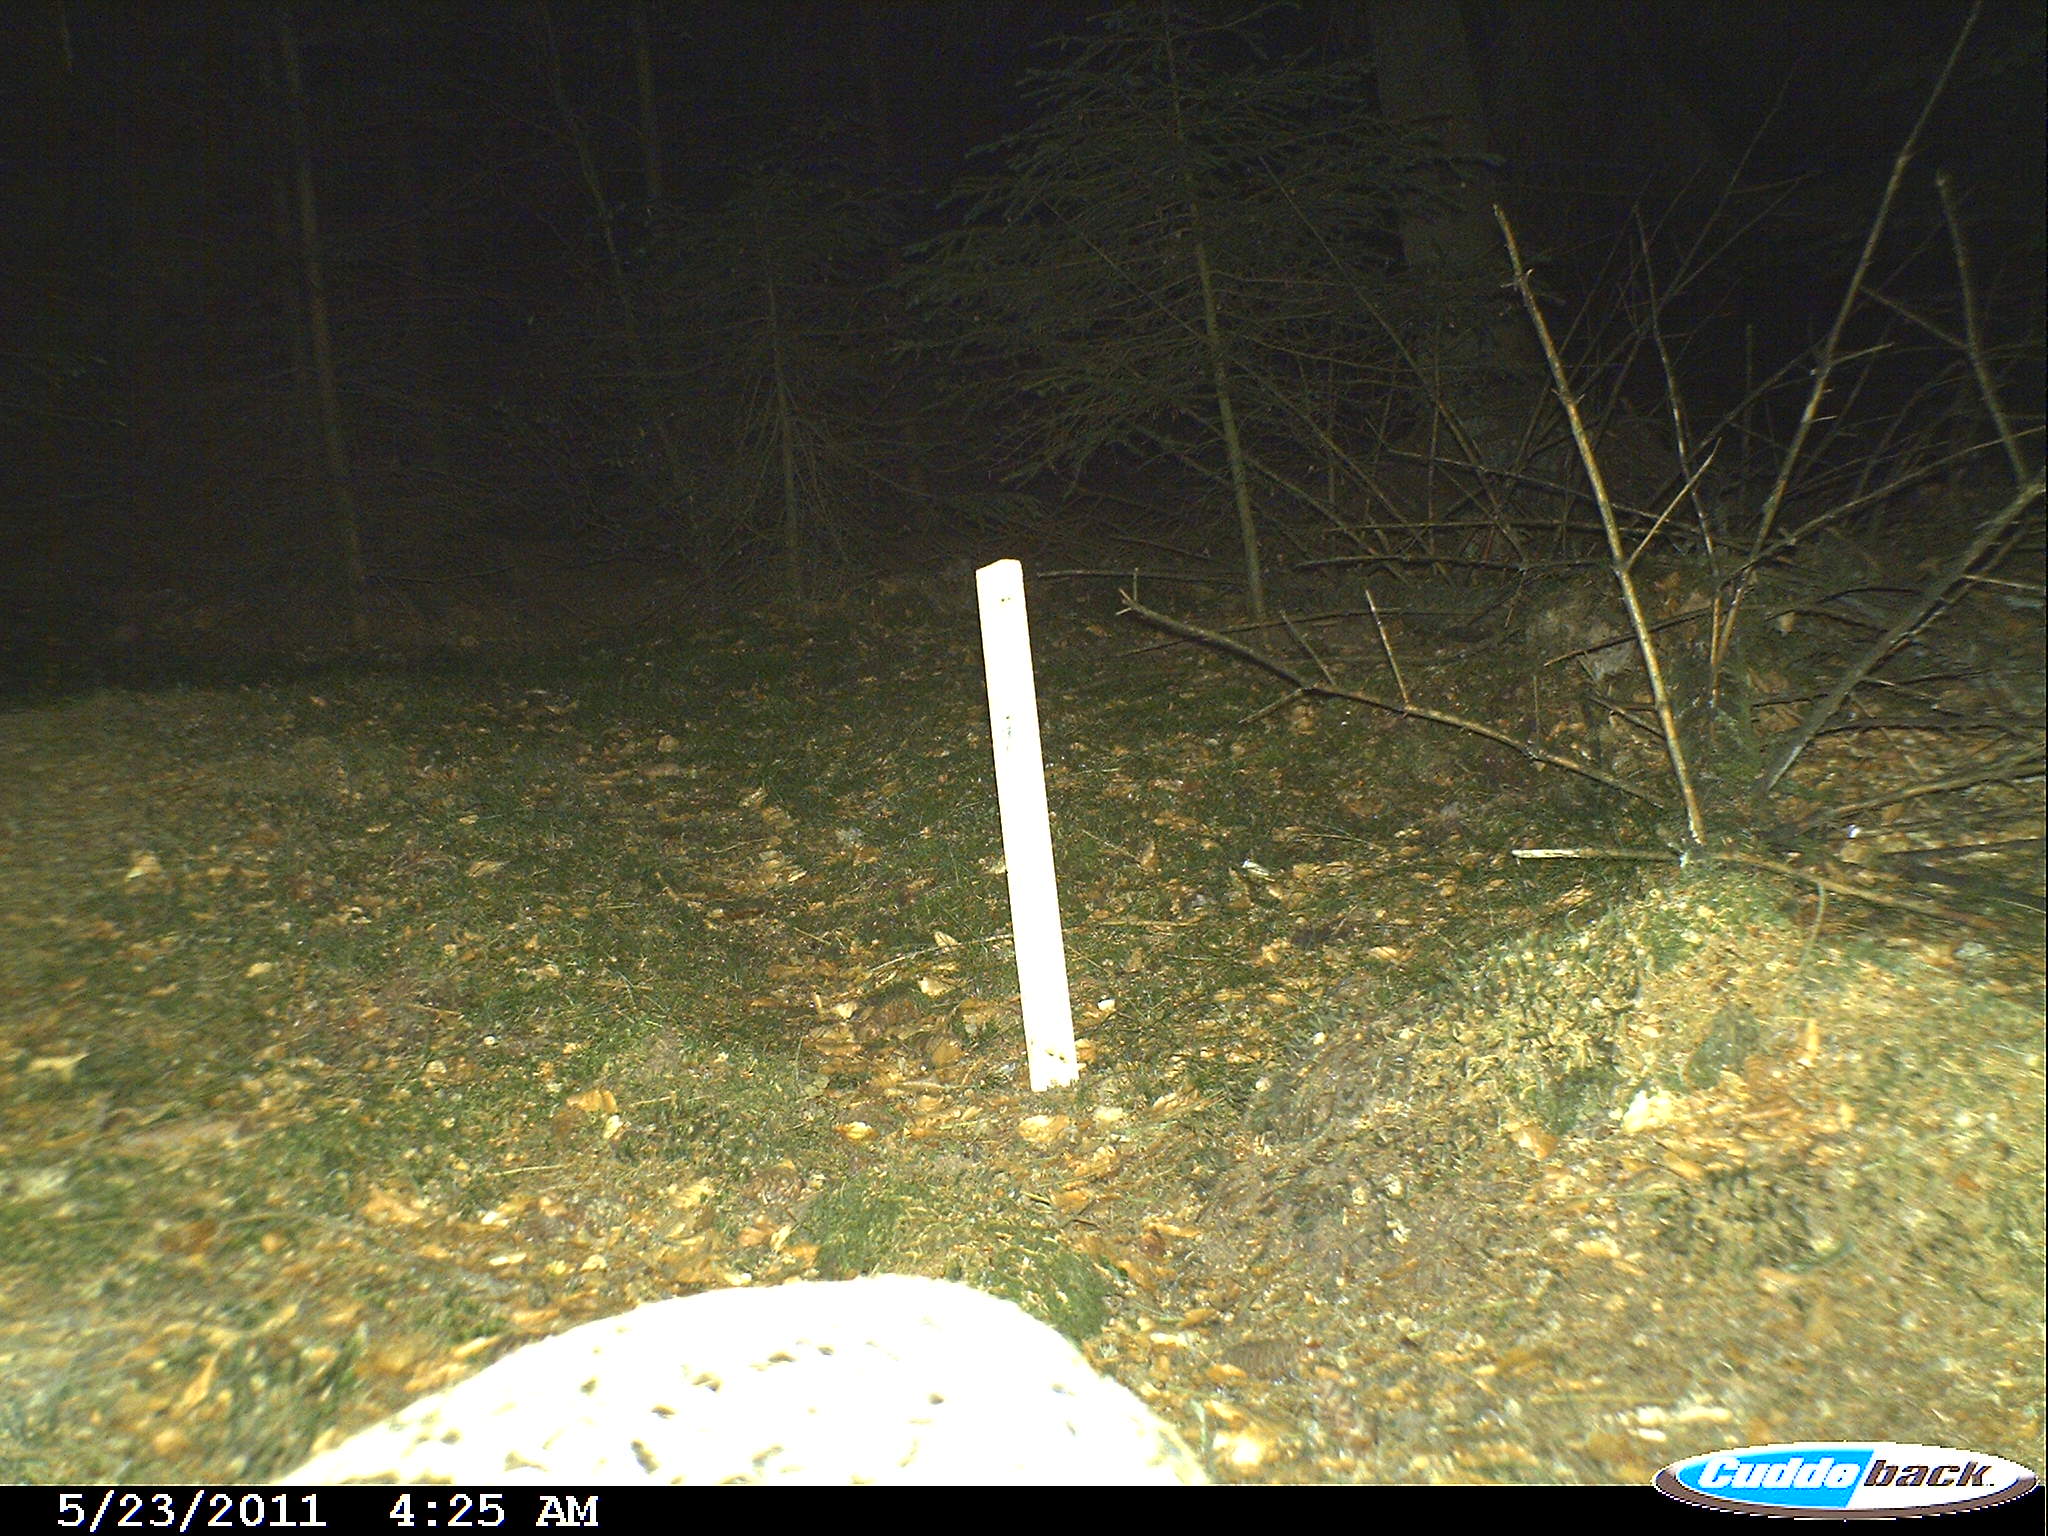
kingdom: Animalia
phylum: Chordata
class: Mammalia
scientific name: Mammalia
